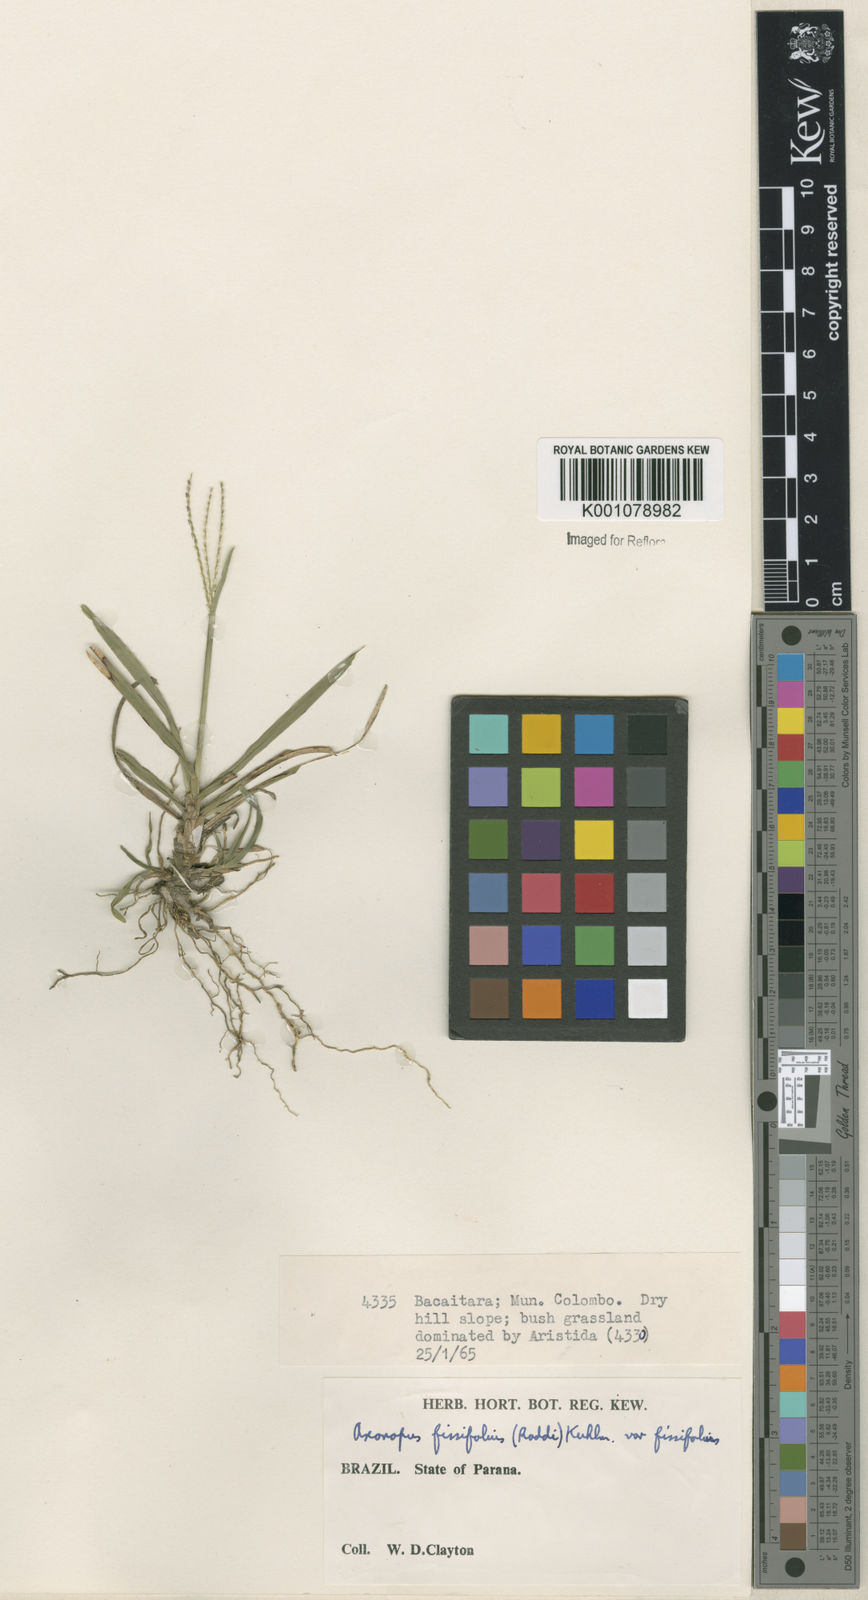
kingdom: Plantae
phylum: Tracheophyta
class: Liliopsida
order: Poales
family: Poaceae
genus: Axonopus
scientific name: Axonopus fissifolius
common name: Common carpetgrass
